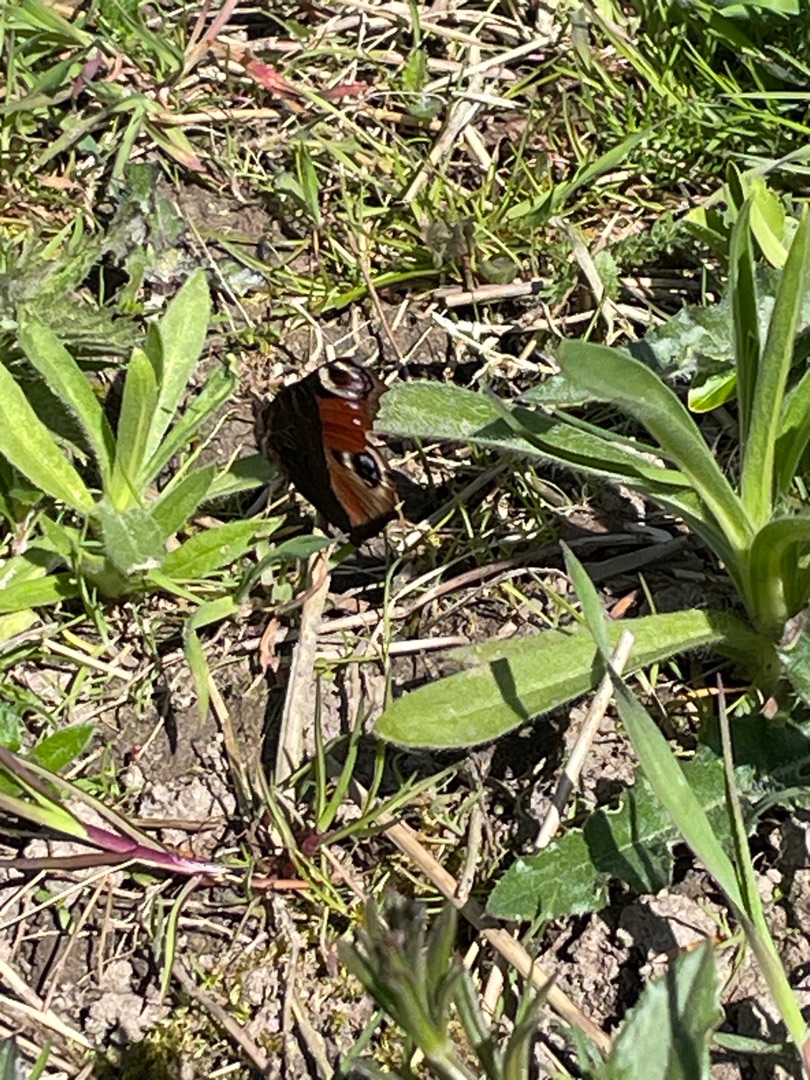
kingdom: Animalia
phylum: Arthropoda
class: Insecta
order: Lepidoptera
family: Nymphalidae
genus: Aglais
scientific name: Aglais io
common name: Dagpåfugleøje
